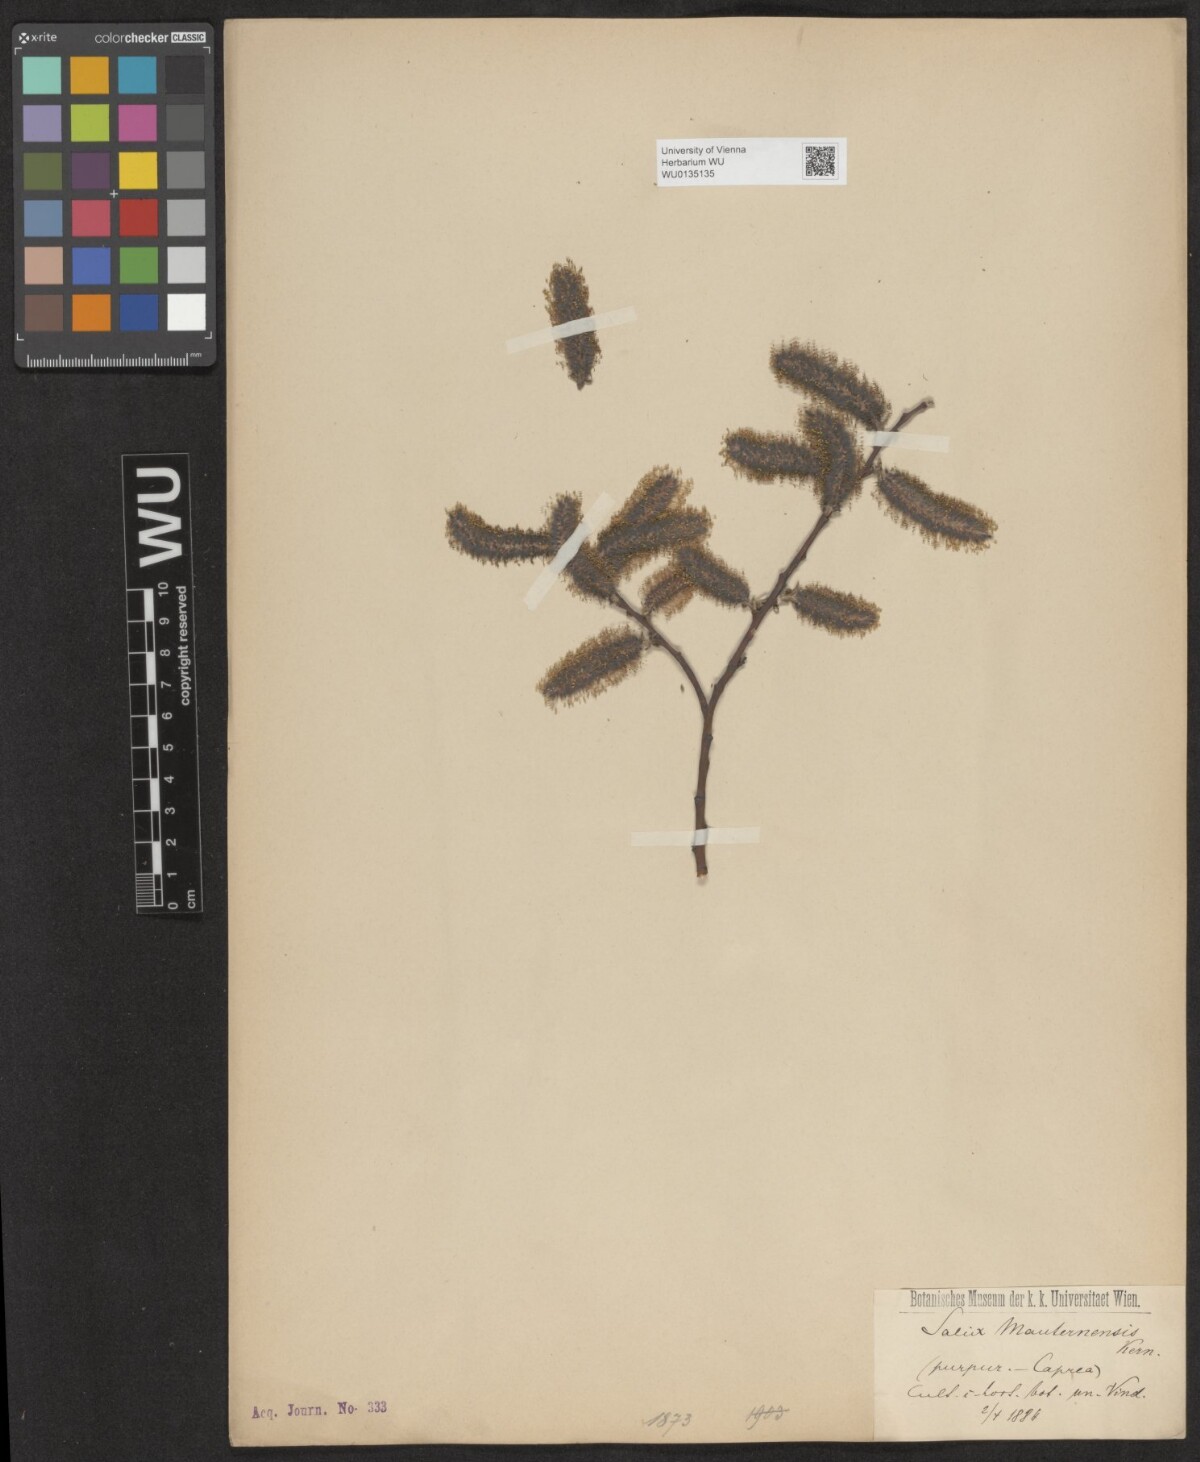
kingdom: Plantae
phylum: Tracheophyta
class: Magnoliopsida
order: Malpighiales
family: Salicaceae
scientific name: Salicaceae
